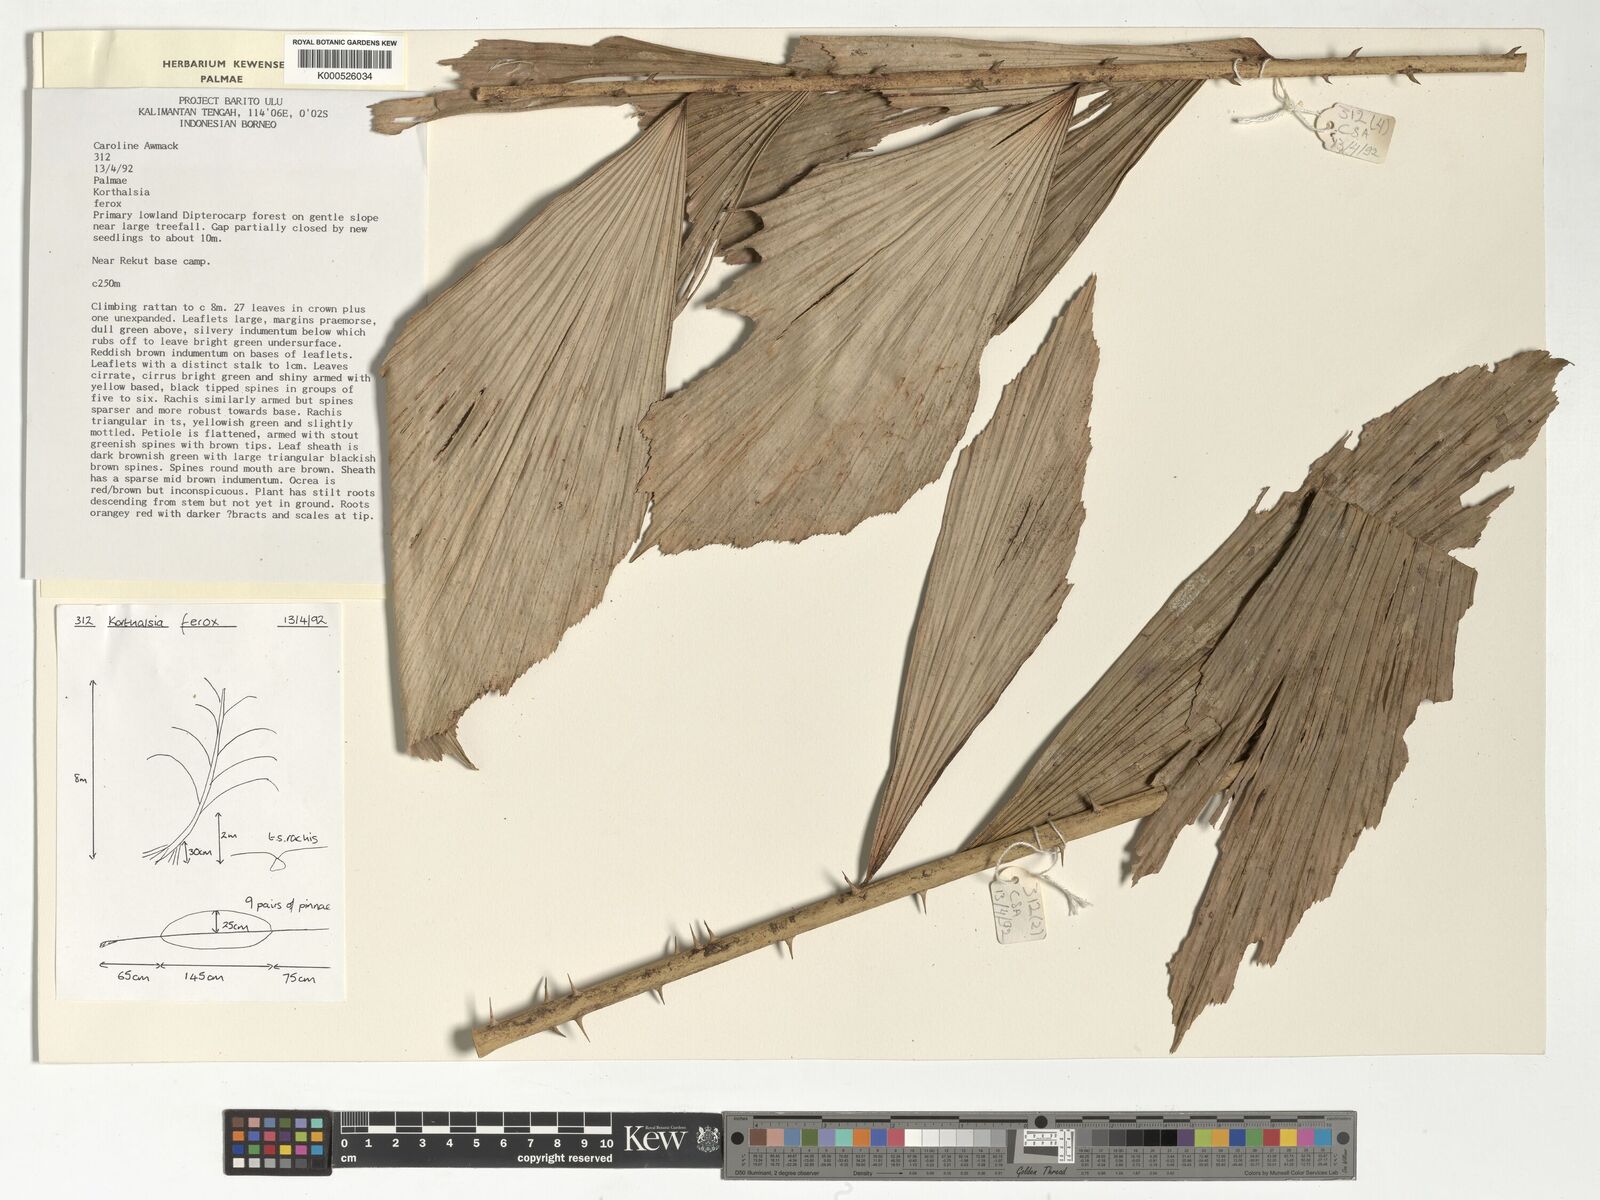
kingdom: Plantae
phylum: Tracheophyta
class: Liliopsida
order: Arecales
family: Arecaceae
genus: Korthalsia
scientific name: Korthalsia ferox
